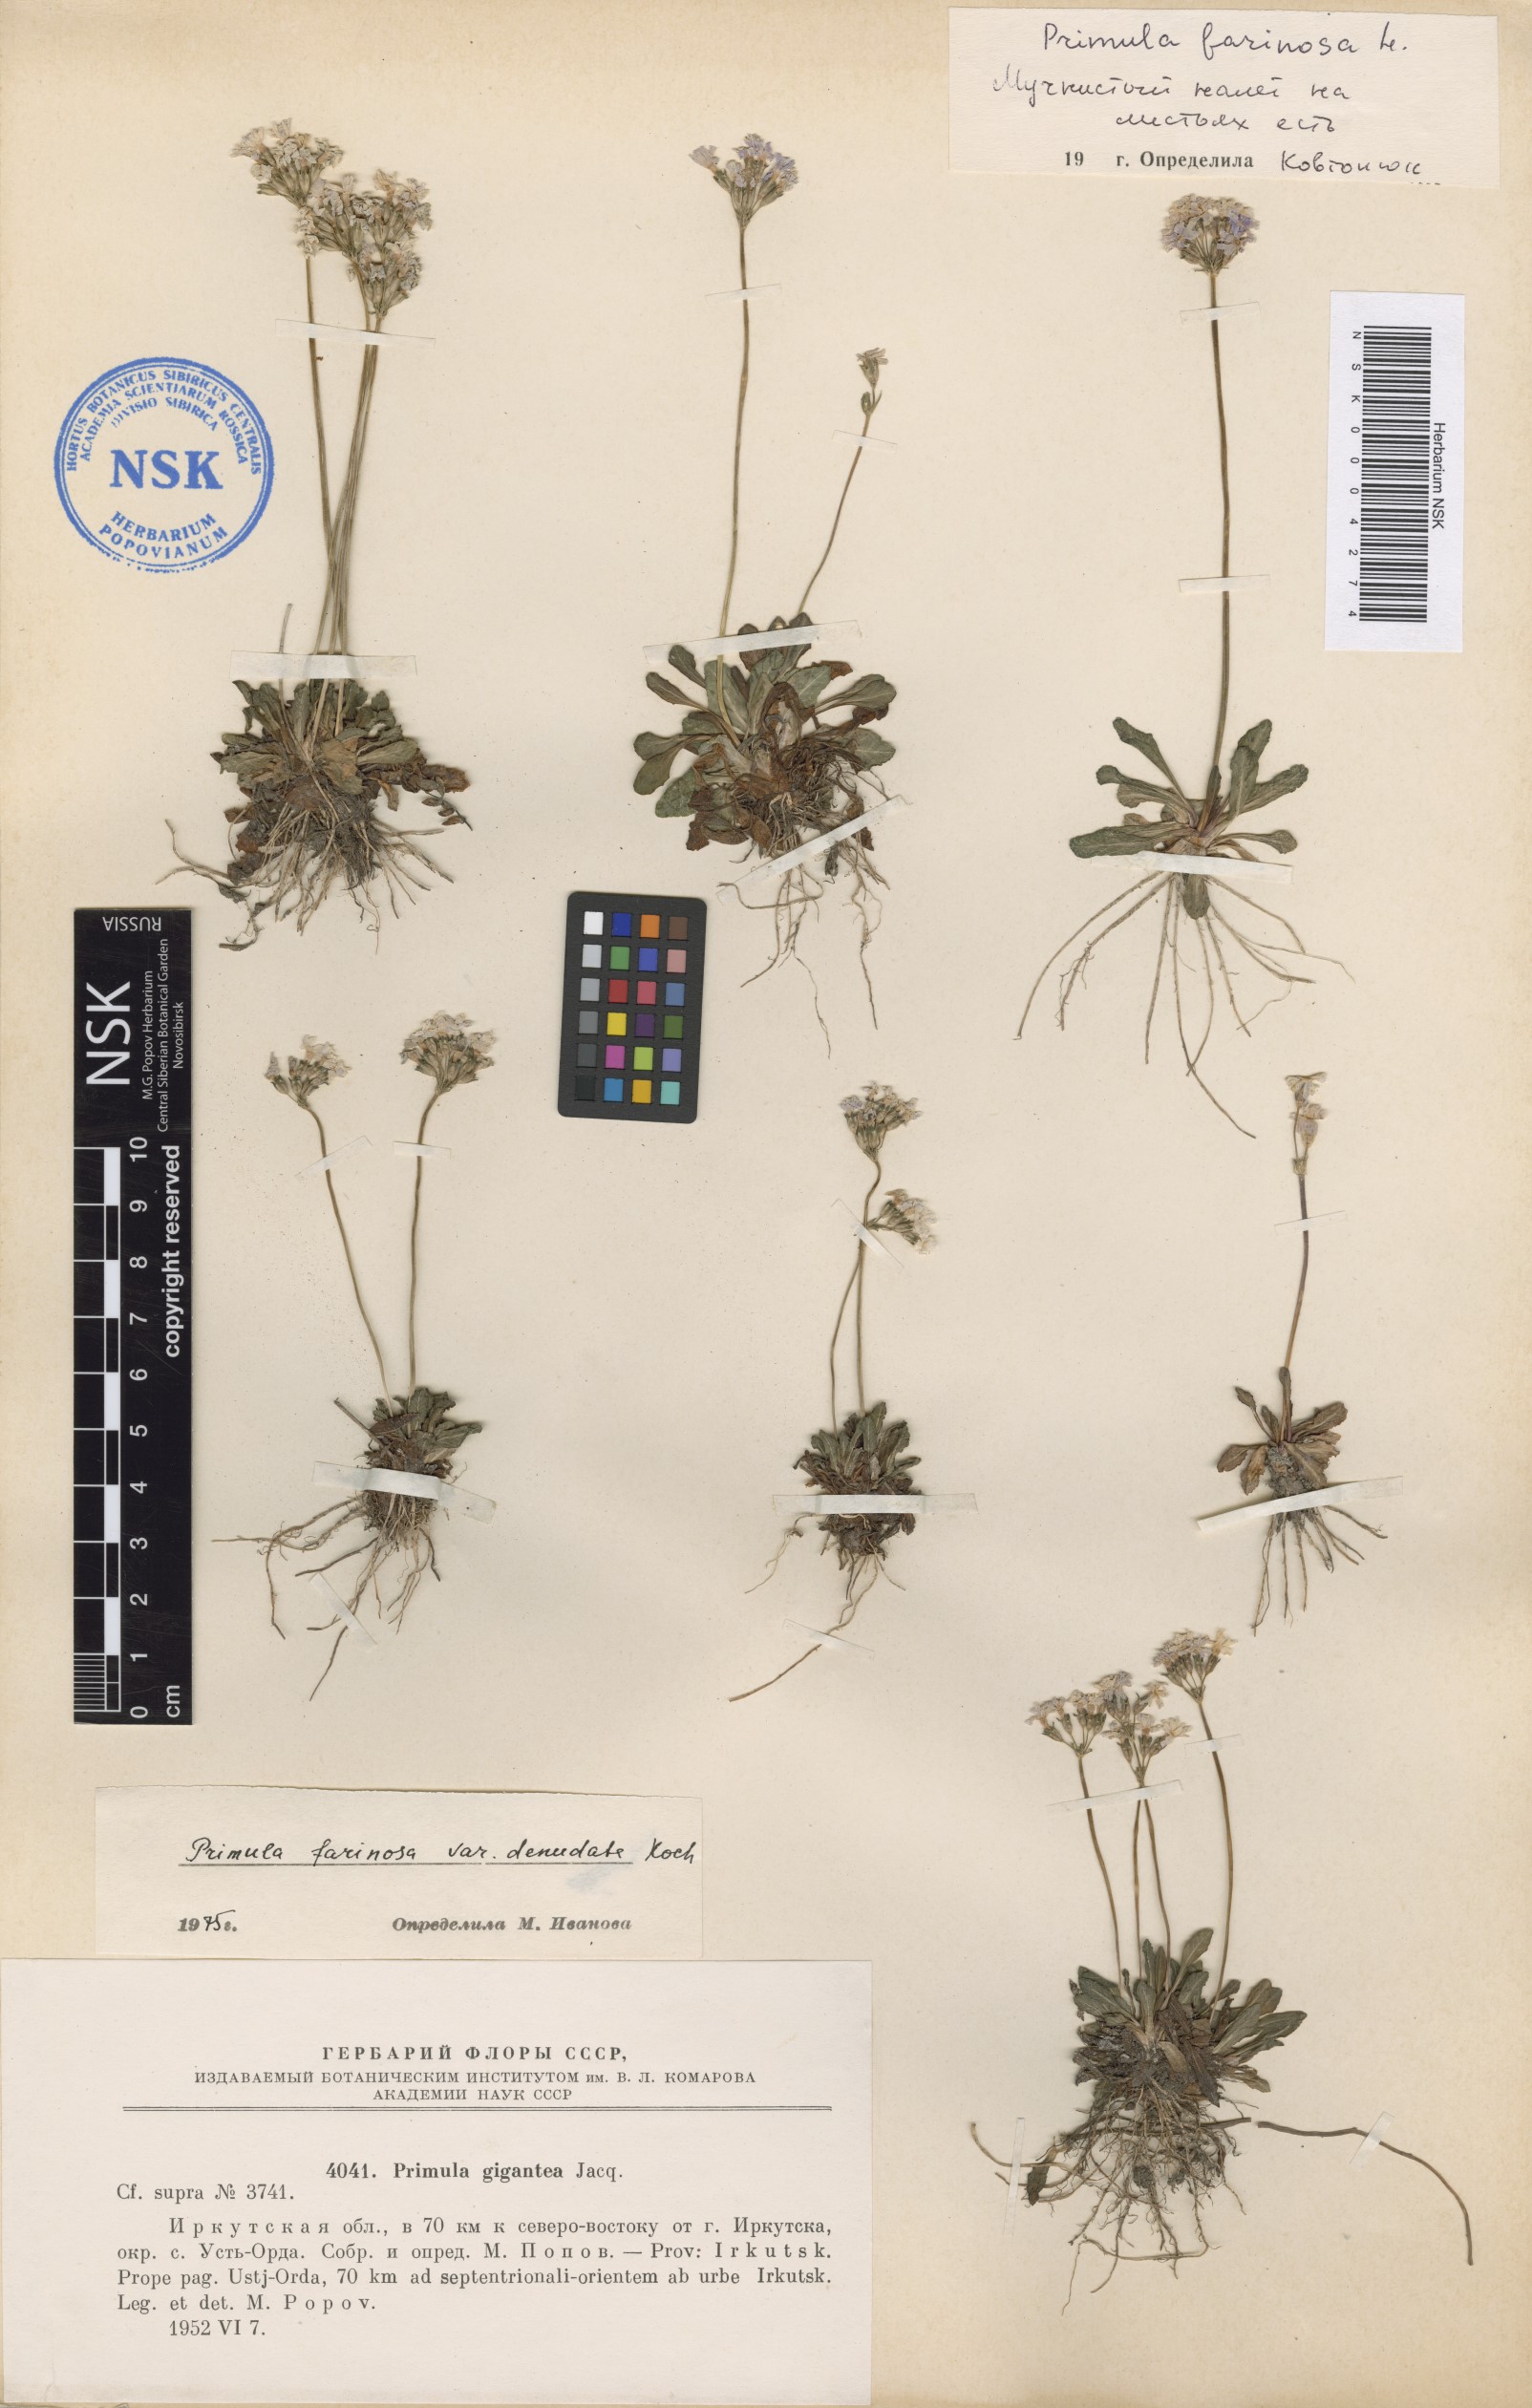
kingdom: Plantae
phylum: Tracheophyta
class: Magnoliopsida
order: Ericales
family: Primulaceae
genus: Primula
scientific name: Primula farinosa
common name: Bird's-eye primrose
